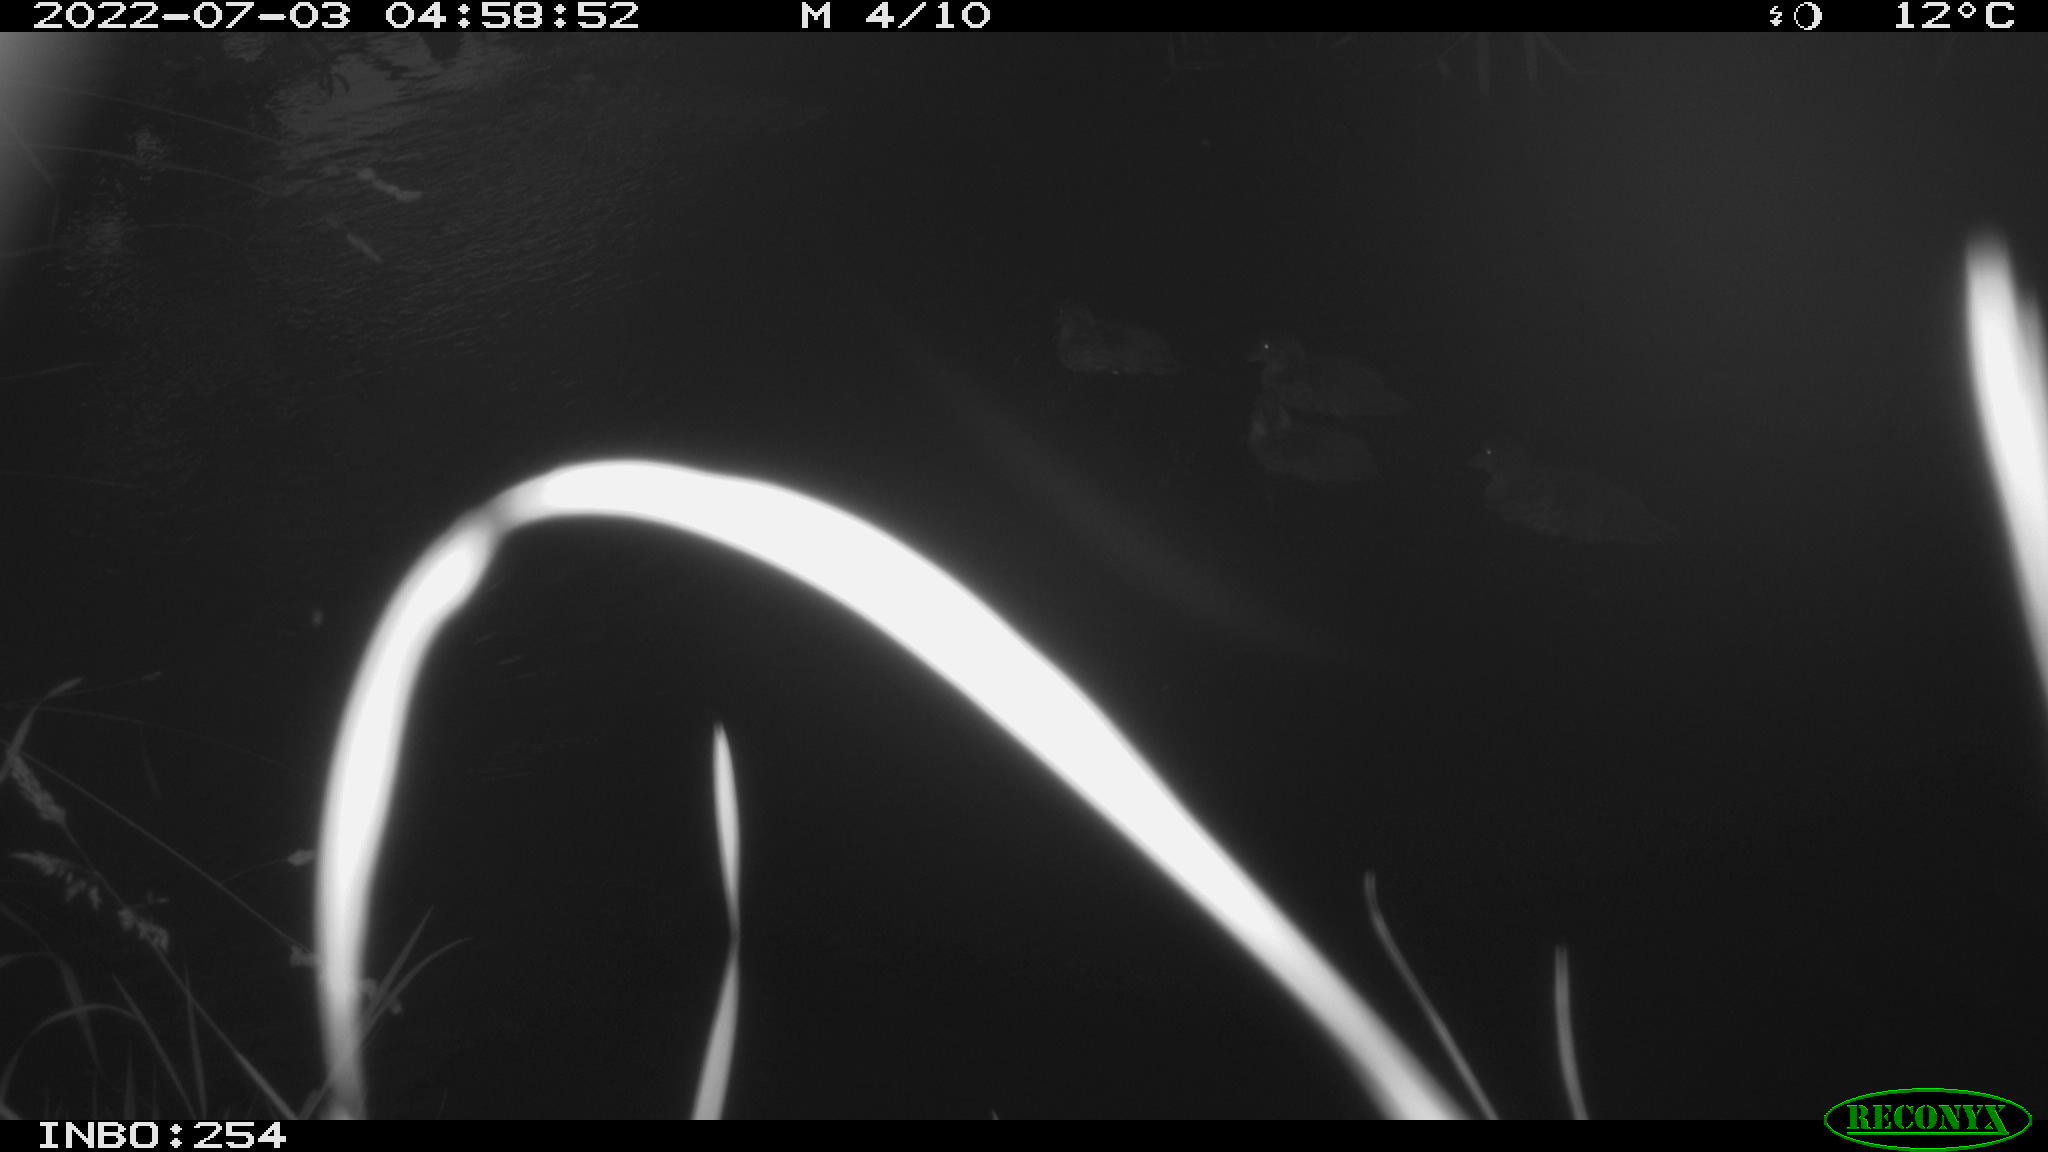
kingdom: Animalia
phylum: Chordata
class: Aves
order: Anseriformes
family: Anatidae
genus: Anas
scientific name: Anas platyrhynchos
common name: Mallard
